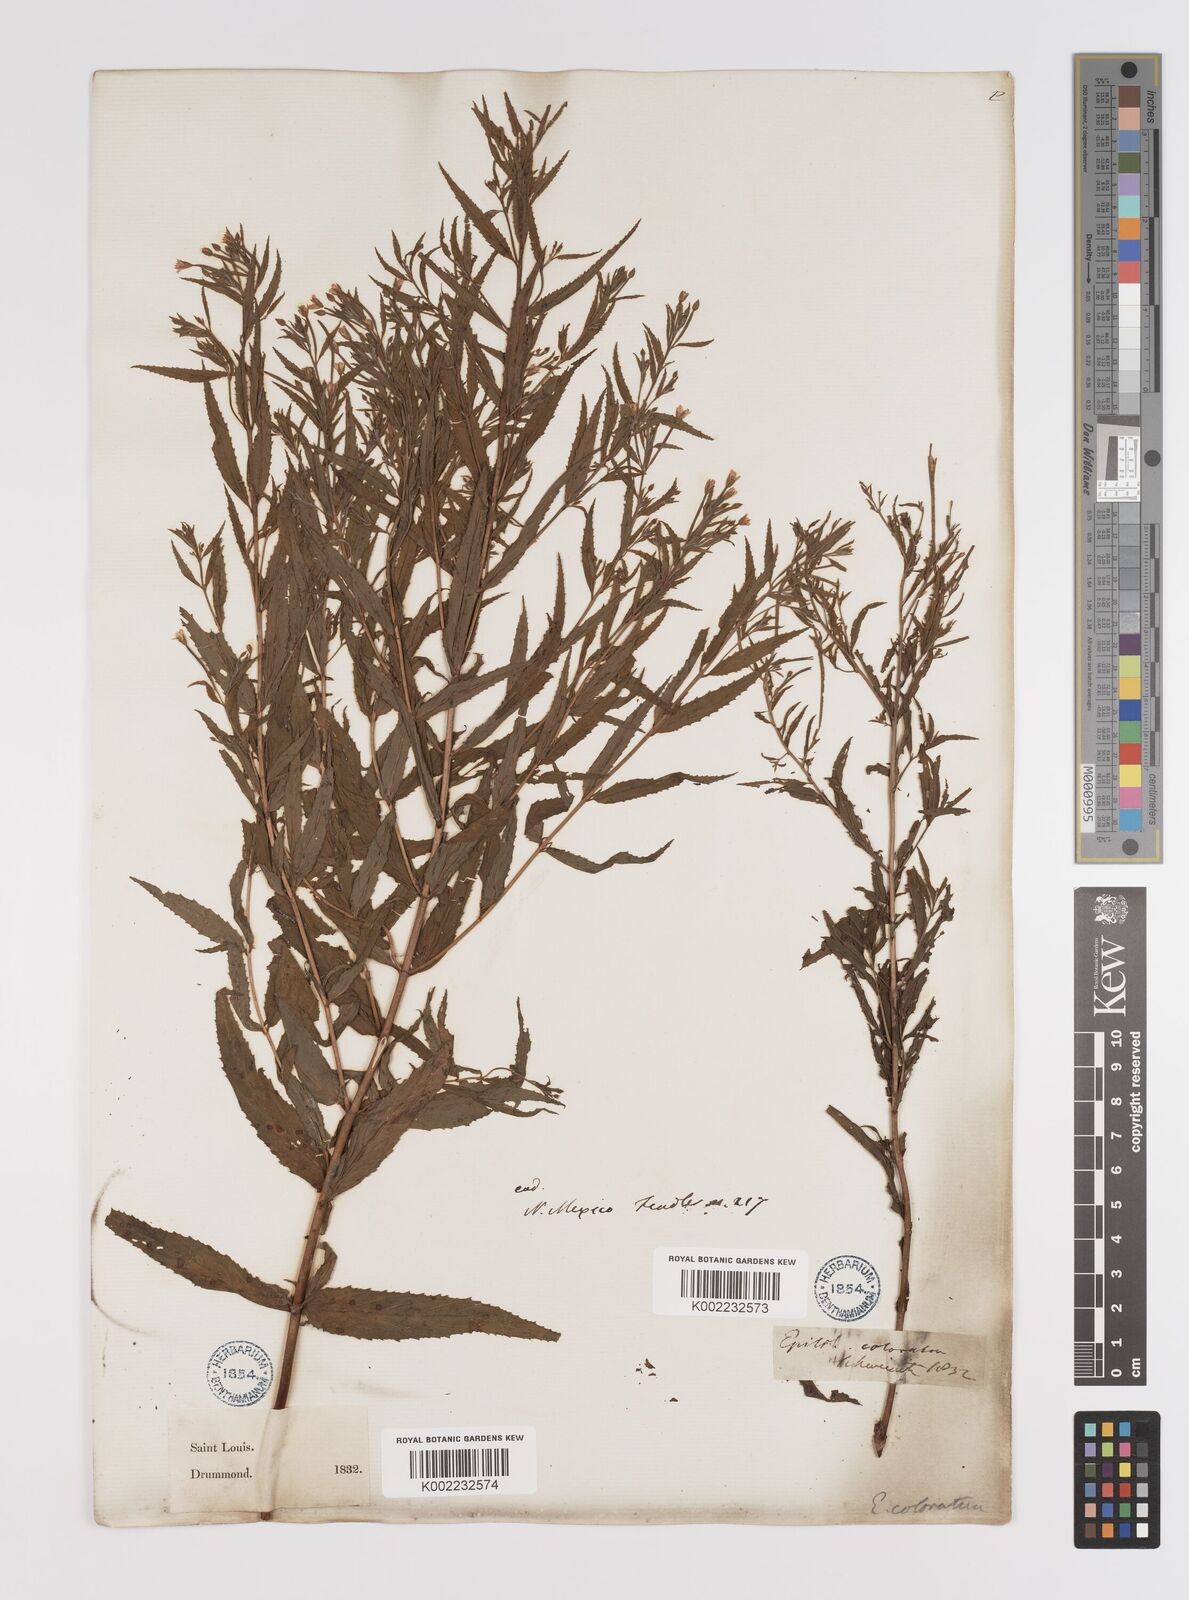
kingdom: Plantae
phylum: Tracheophyta
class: Magnoliopsida
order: Myrtales
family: Onagraceae
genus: Epilobium
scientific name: Epilobium coloratum
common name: Bronze willowherb
